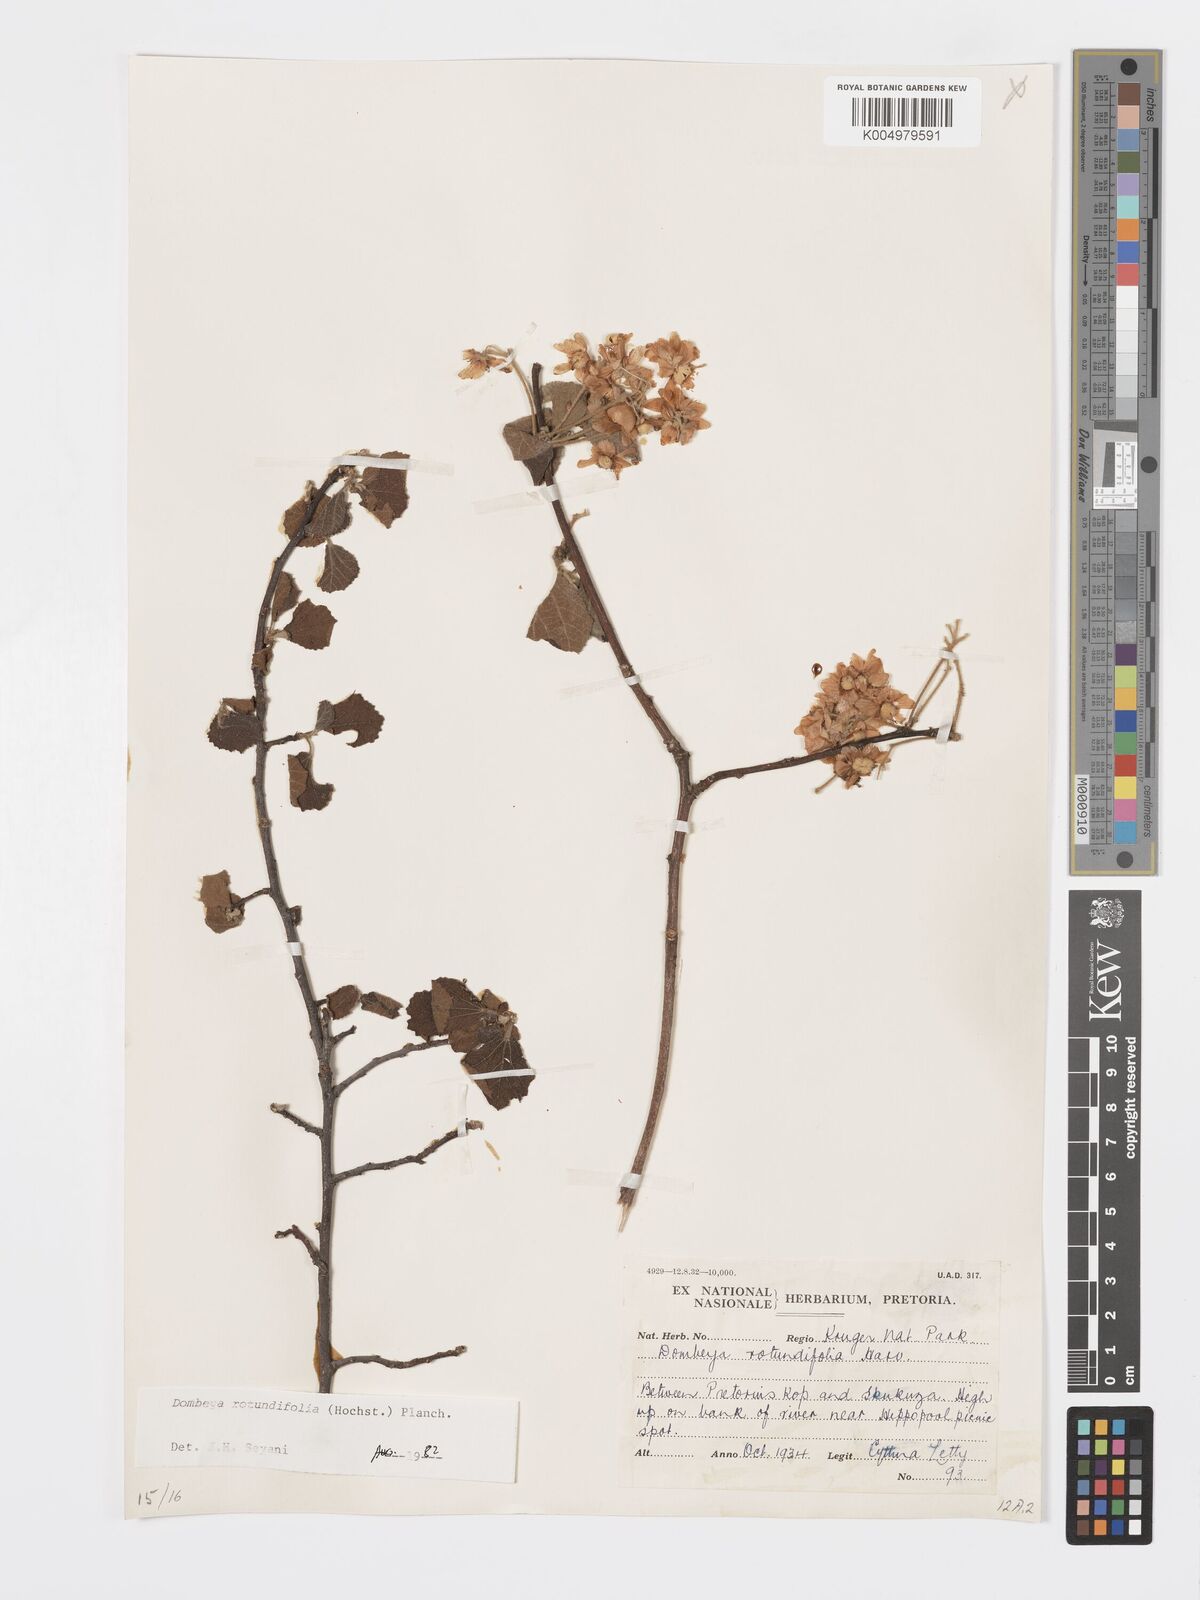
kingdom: Plantae
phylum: Tracheophyta
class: Magnoliopsida
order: Malvales
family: Malvaceae
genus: Dombeya
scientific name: Dombeya rotundifolia
